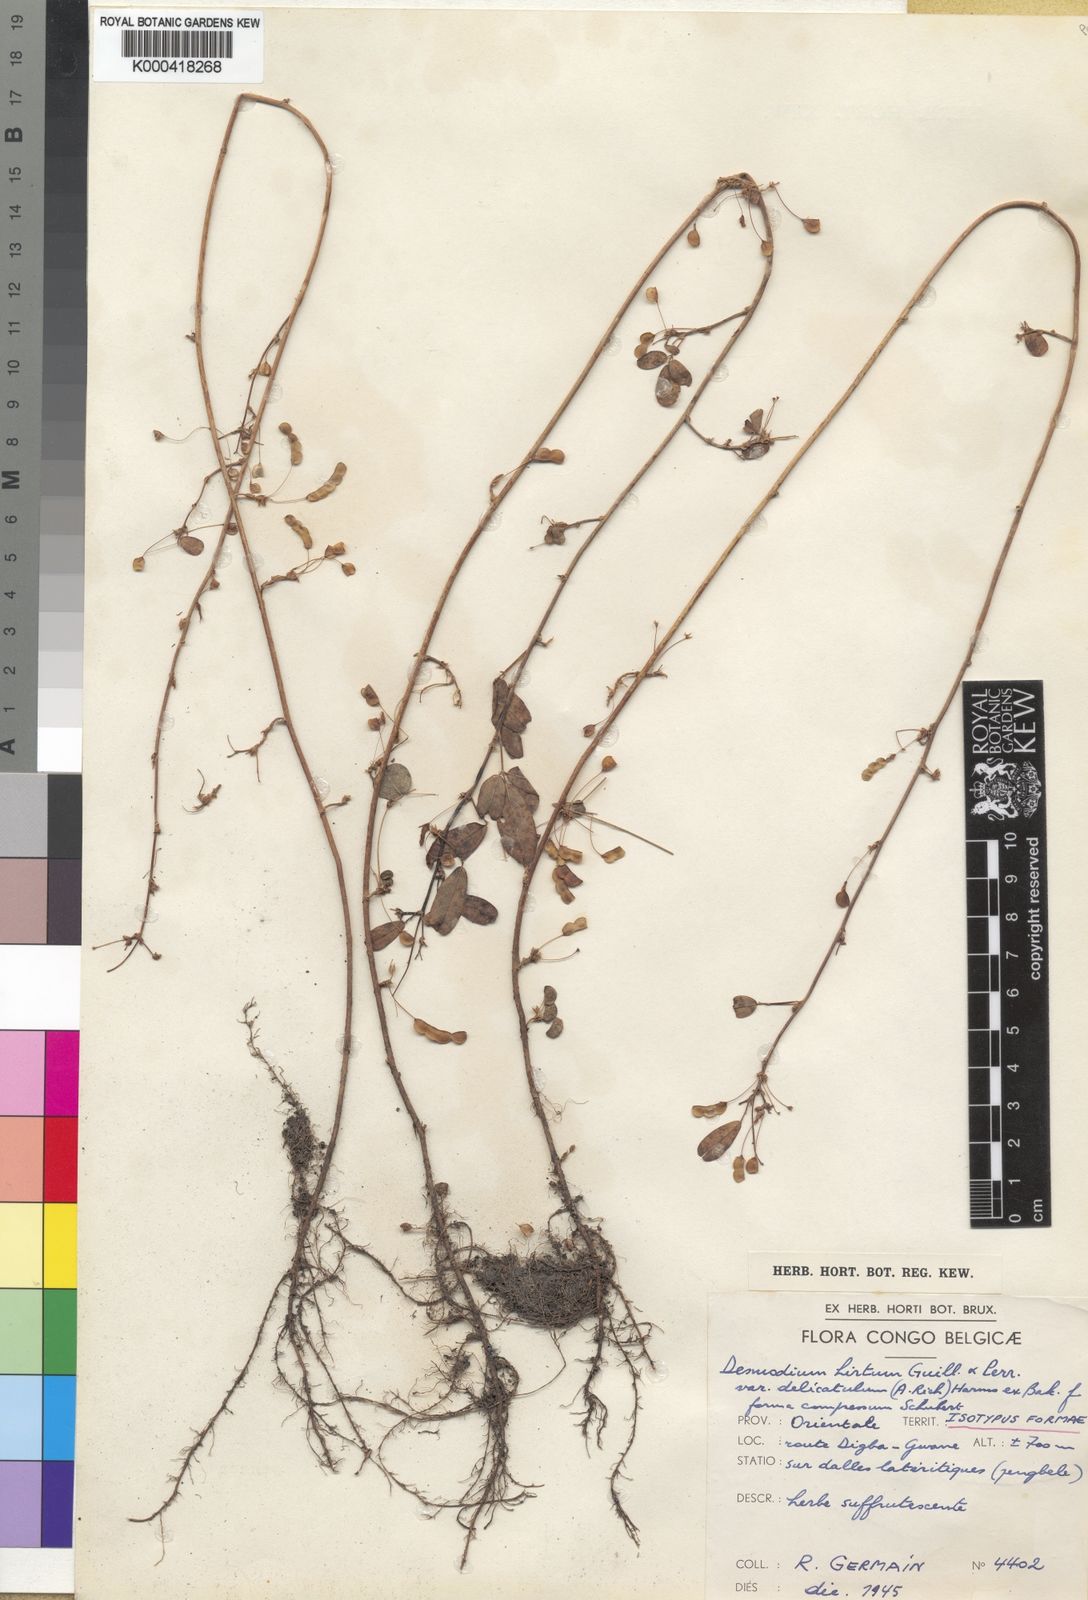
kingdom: Plantae
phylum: Tracheophyta
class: Magnoliopsida
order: Fabales
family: Fabaceae
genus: Grona
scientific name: Grona hirta
